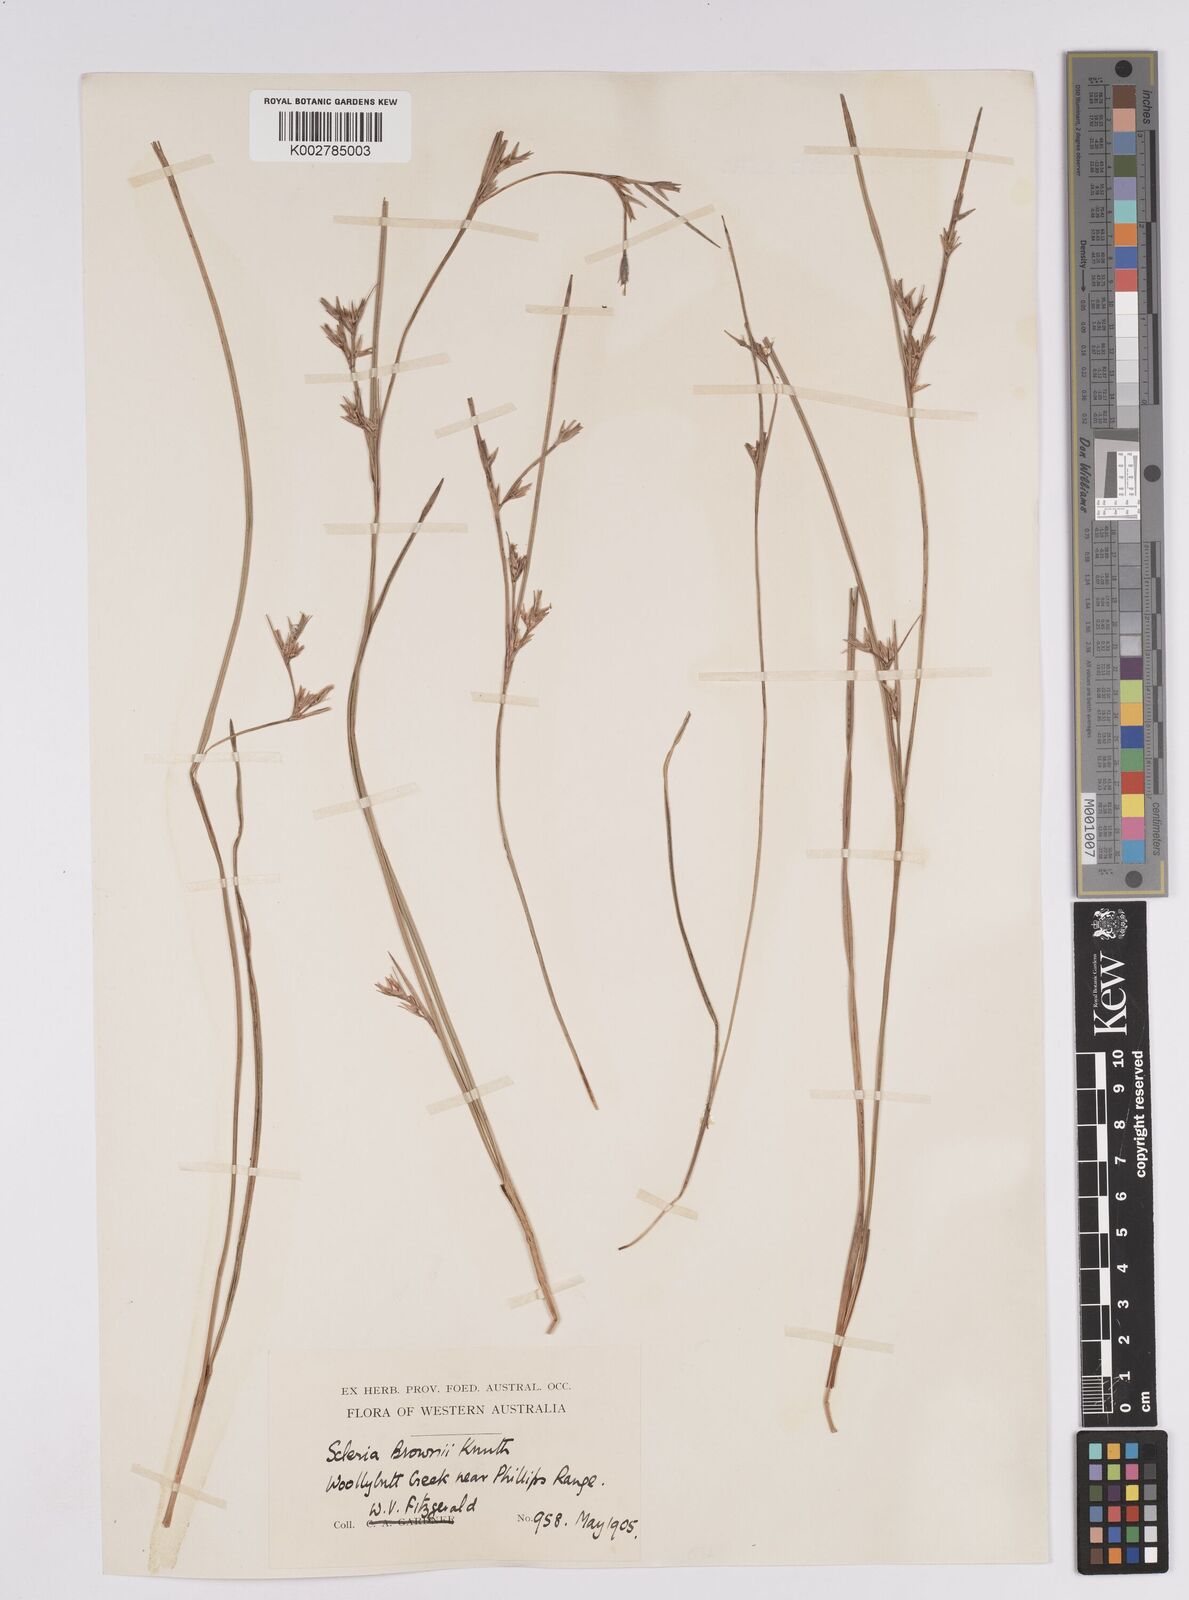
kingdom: Plantae
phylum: Tracheophyta
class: Liliopsida
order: Poales
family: Cyperaceae
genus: Scleria
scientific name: Scleria brownii
